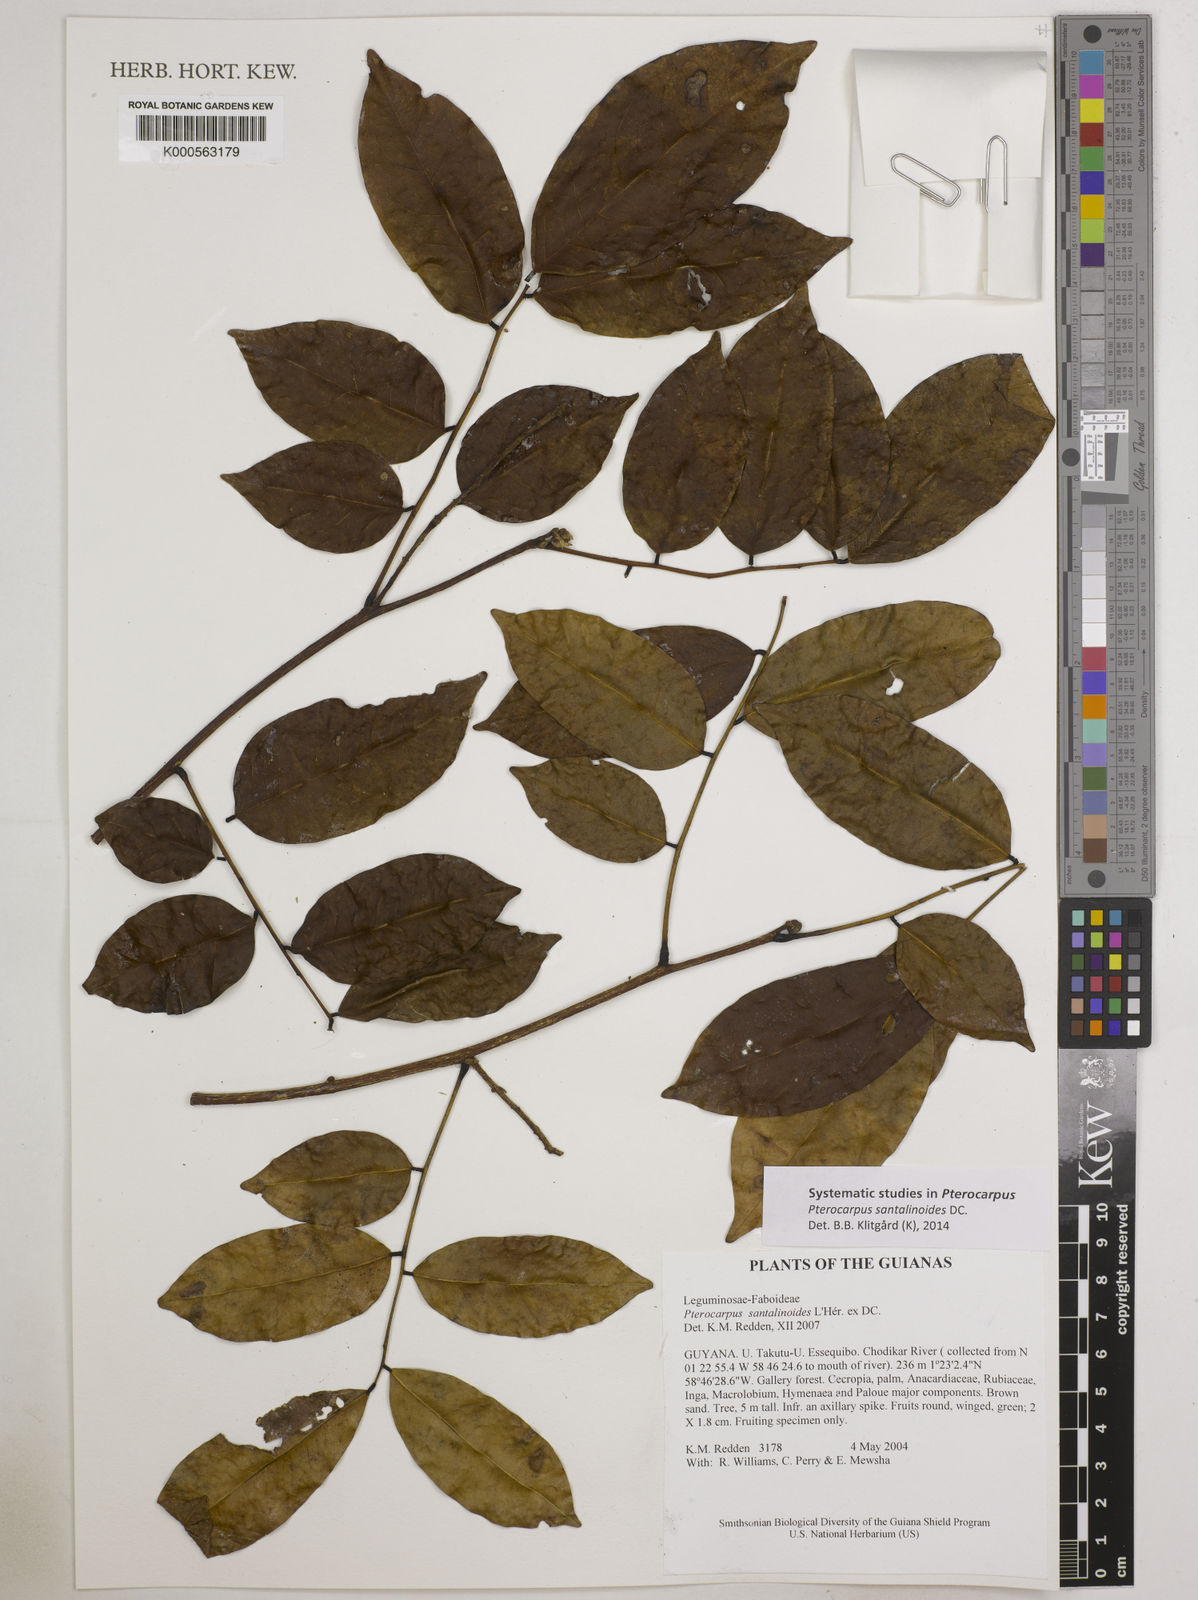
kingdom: Plantae
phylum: Tracheophyta
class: Magnoliopsida
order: Fabales
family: Fabaceae
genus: Pterocarpus
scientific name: Pterocarpus santalinoides
